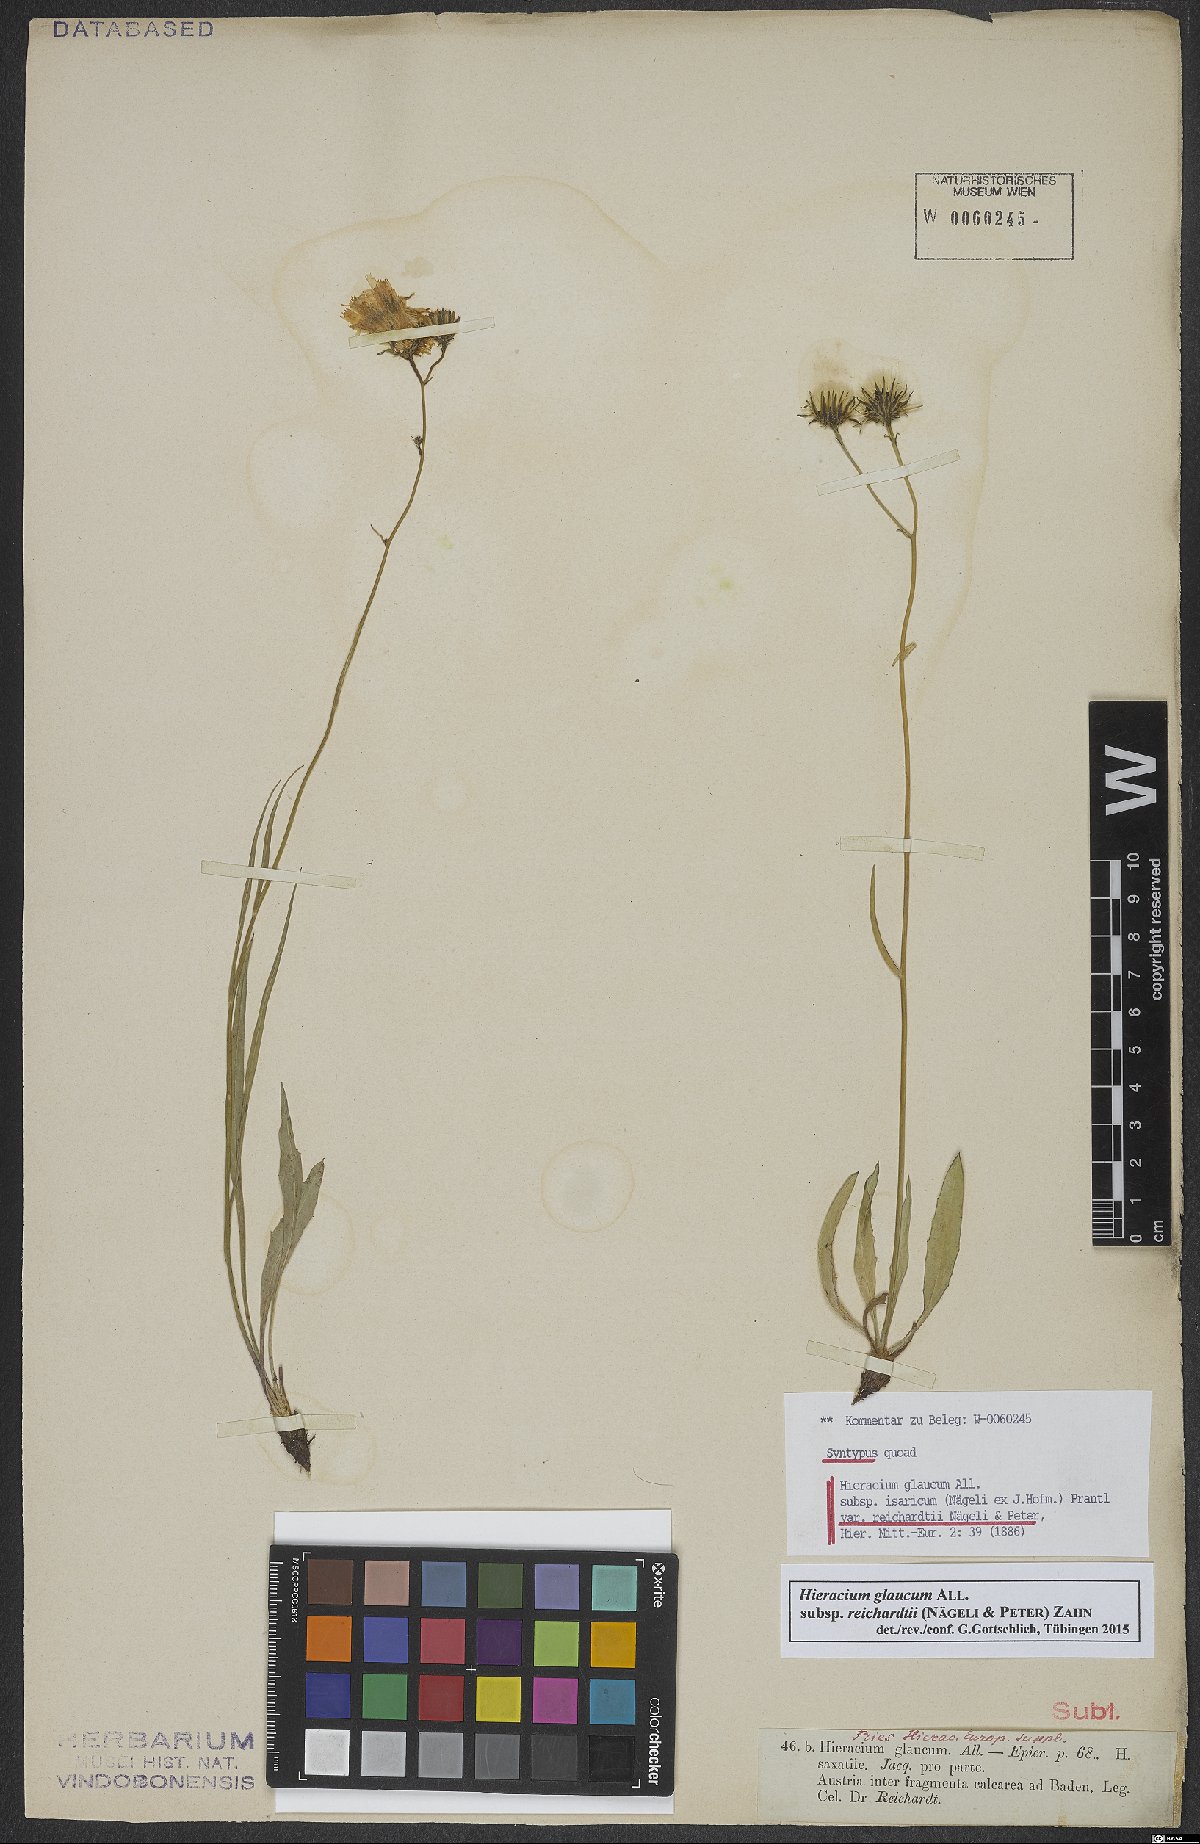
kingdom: Plantae
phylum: Tracheophyta
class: Magnoliopsida
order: Asterales
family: Asteraceae
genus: Hieracium
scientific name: Hieracium glaucum
